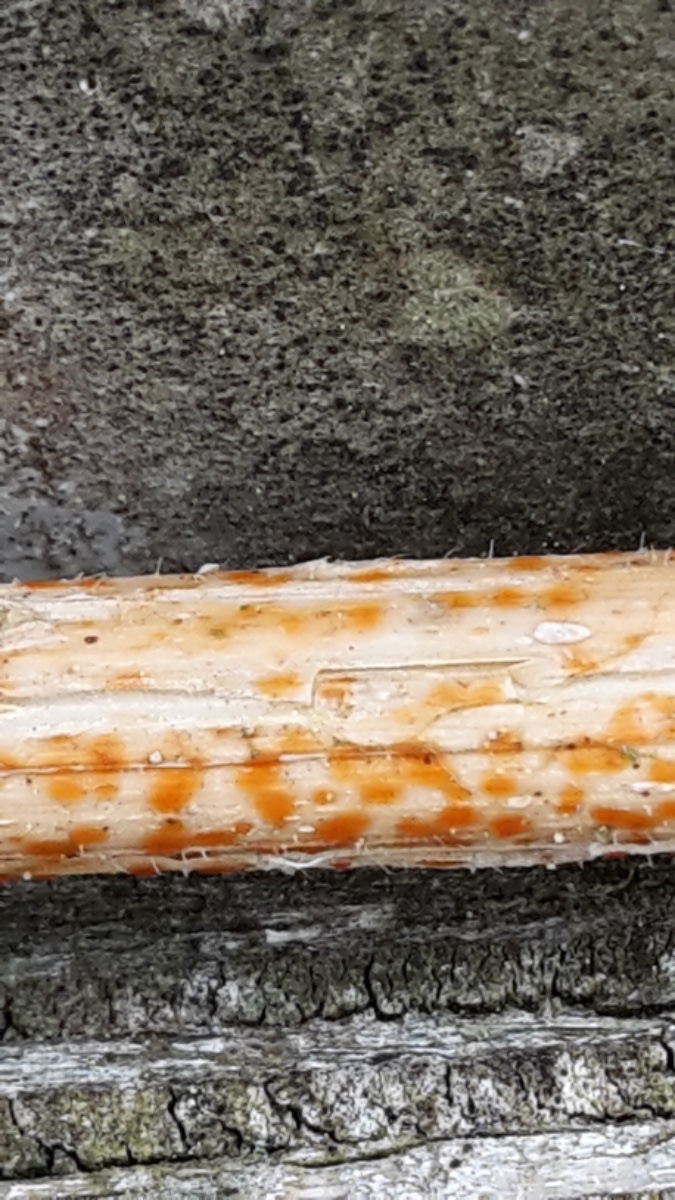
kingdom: Fungi
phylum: Ascomycota
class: Leotiomycetes
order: Helotiales
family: Calloriaceae
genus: Calloria
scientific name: Calloria urticae
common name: nælde-orangeskive
